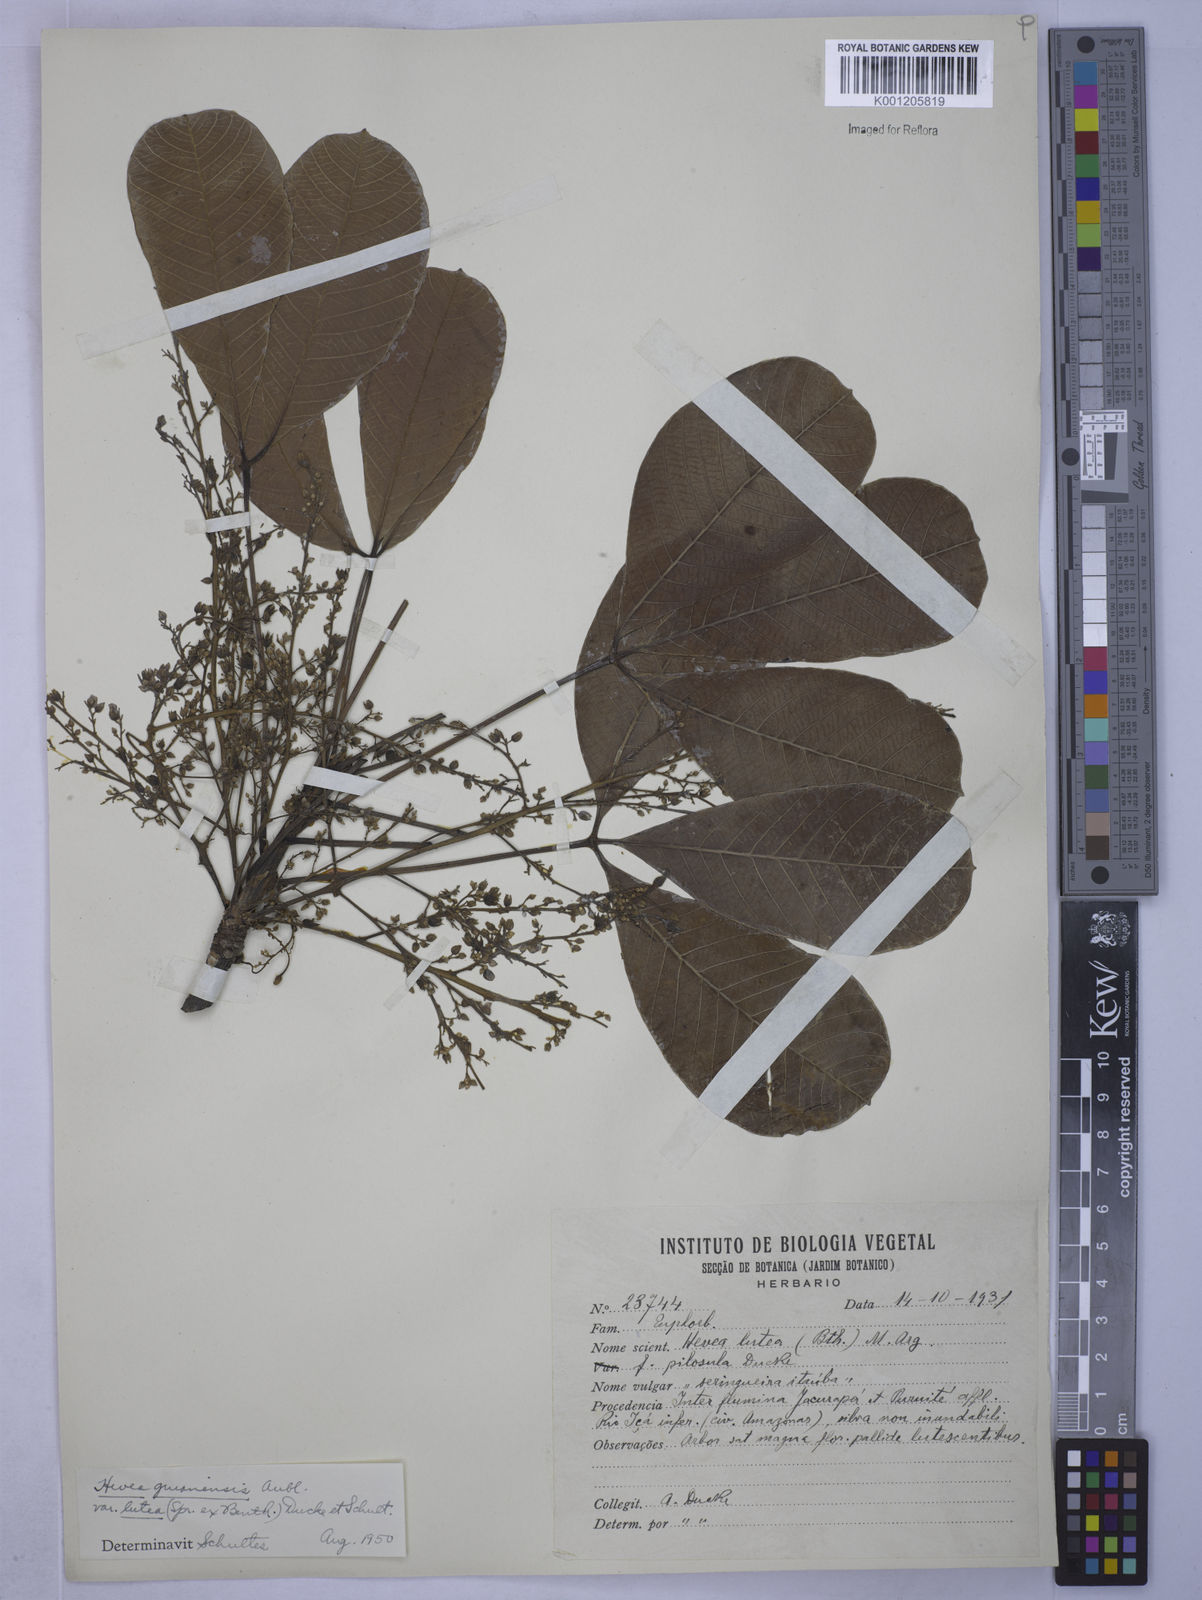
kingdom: Plantae
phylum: Tracheophyta
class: Magnoliopsida
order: Malpighiales
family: Euphorbiaceae
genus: Hevea
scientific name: Hevea guianensis
